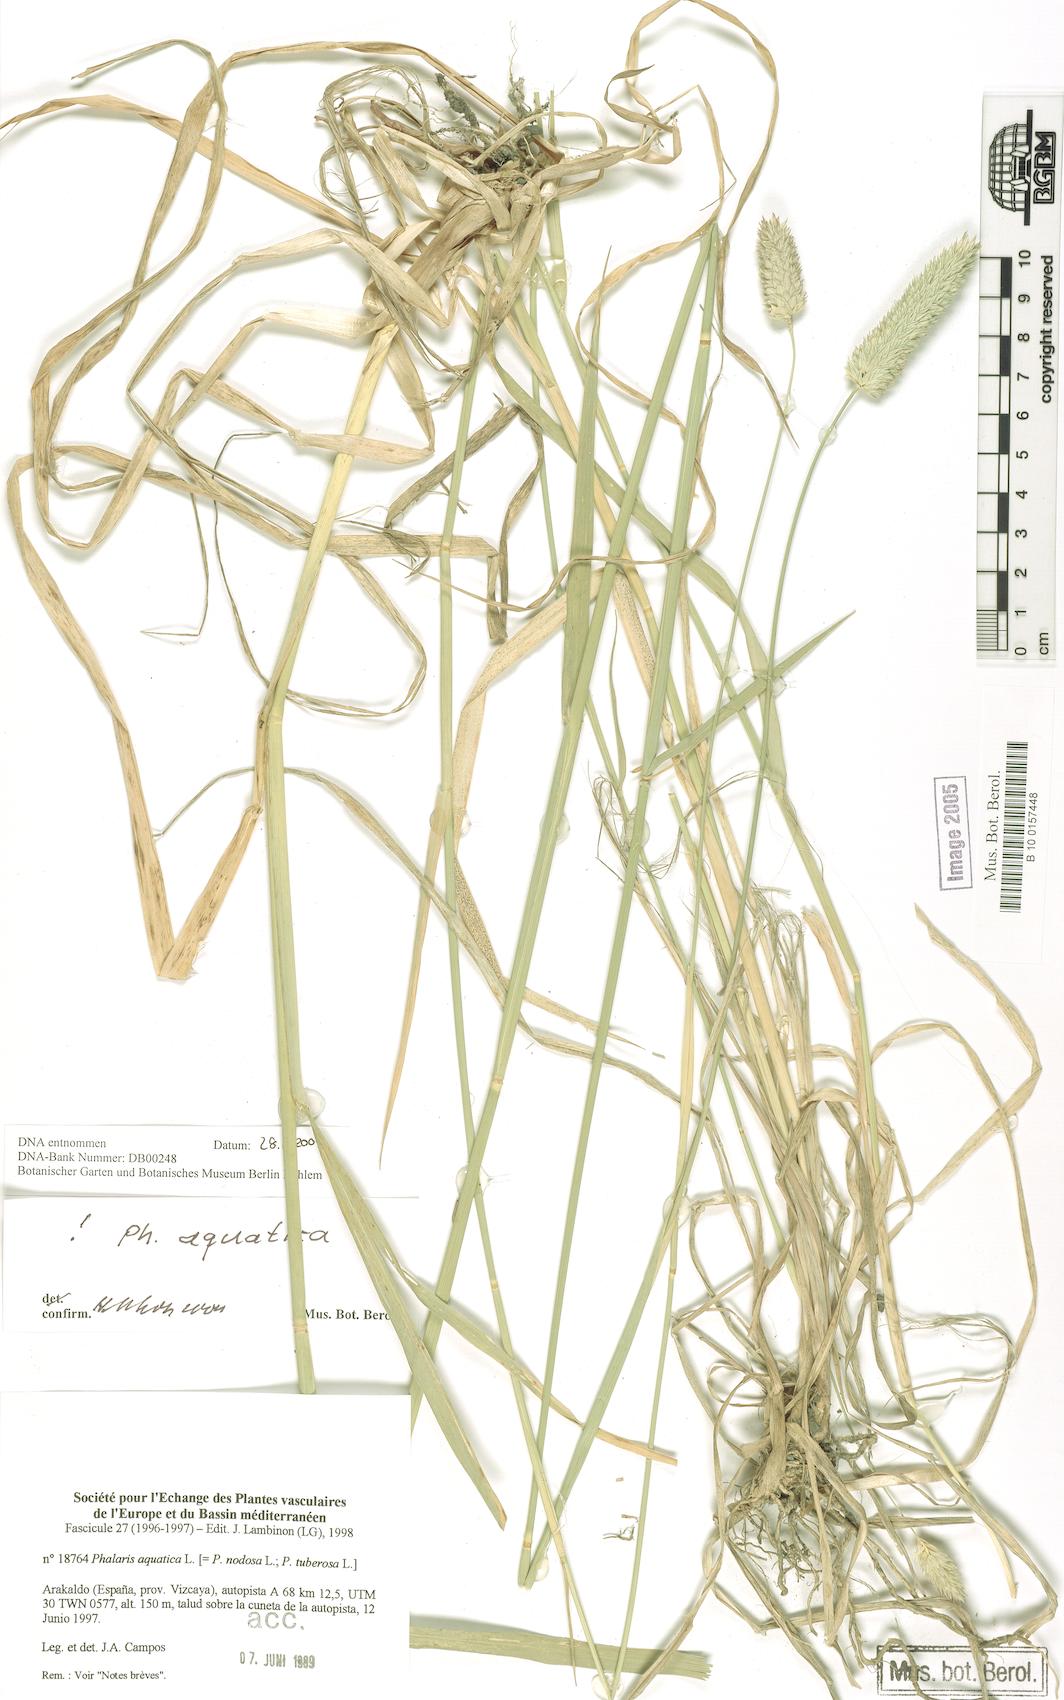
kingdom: Plantae
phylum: Tracheophyta
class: Liliopsida
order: Poales
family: Poaceae
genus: Phalaris
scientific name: Phalaris aquatica
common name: Bulbous canary-grass
